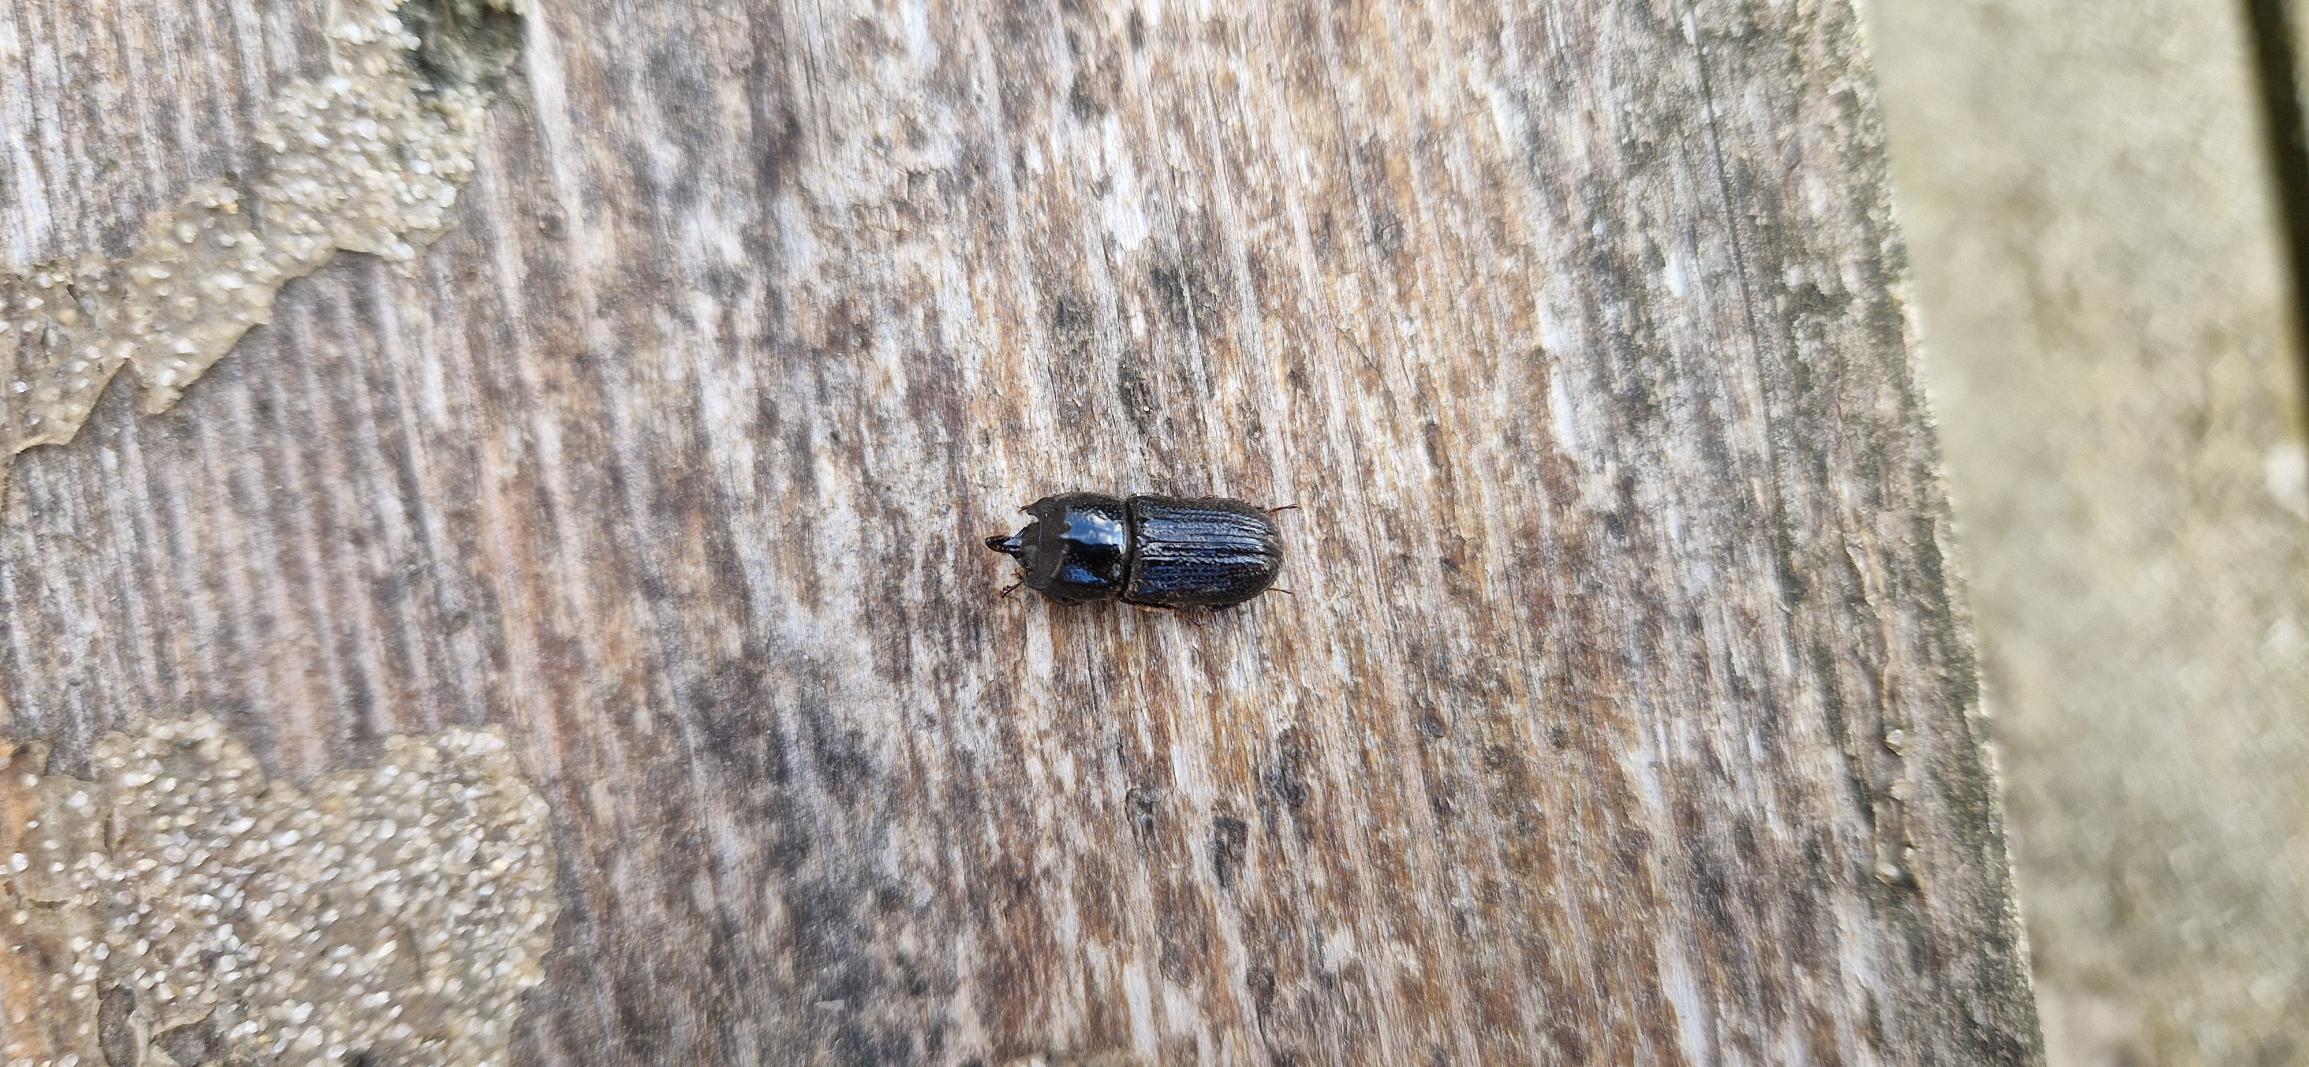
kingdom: Animalia
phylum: Arthropoda
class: Insecta
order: Coleoptera
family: Lucanidae
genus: Sinodendron
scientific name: Sinodendron cylindricum
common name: Valsehjort
